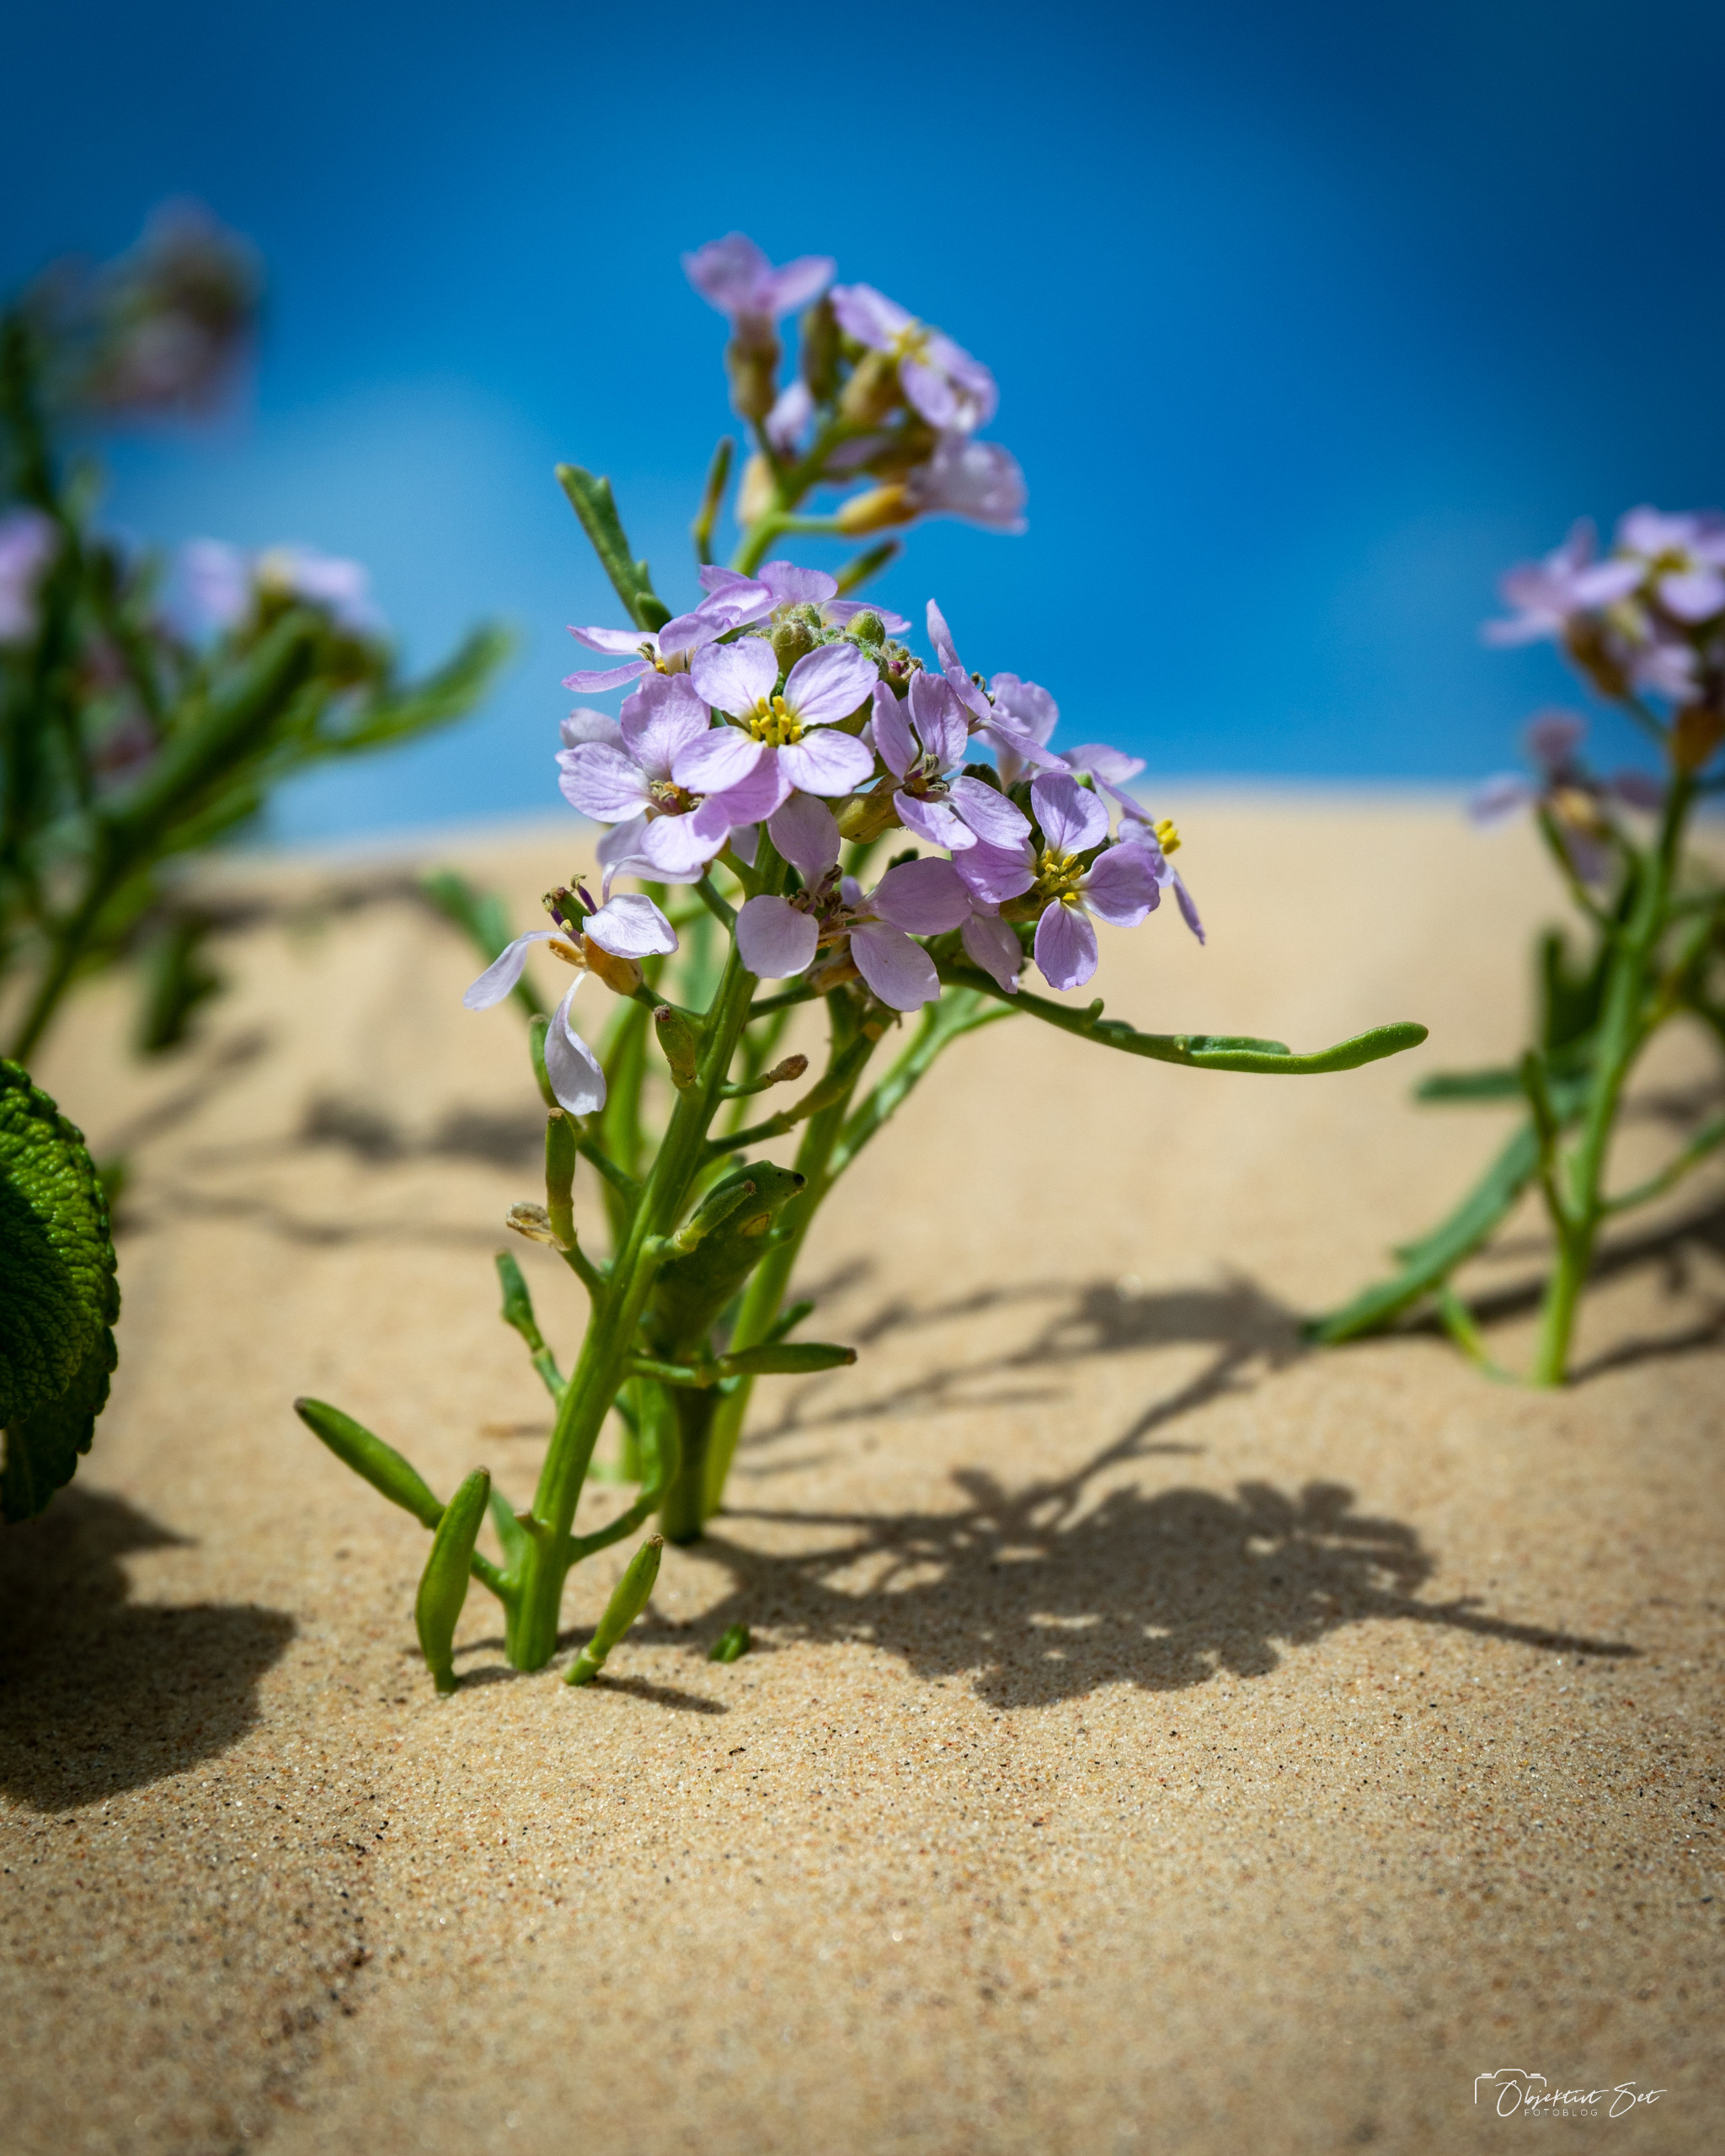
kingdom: Plantae
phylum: Tracheophyta
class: Magnoliopsida
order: Brassicales
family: Brassicaceae
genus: Cakile
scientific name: Cakile maritima
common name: Strandsennep
